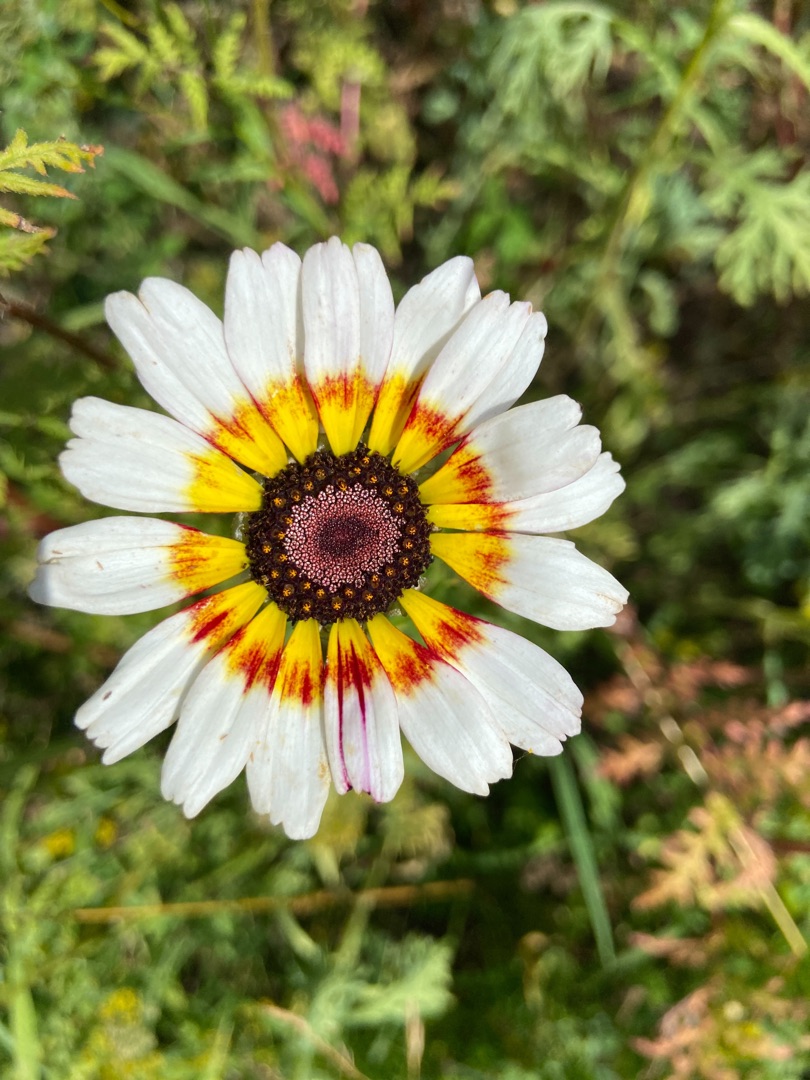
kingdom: Plantae
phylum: Tracheophyta
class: Magnoliopsida
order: Asterales
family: Asteraceae
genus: Glebionis
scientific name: Glebionis carinata
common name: Flerfarvet okseøje
